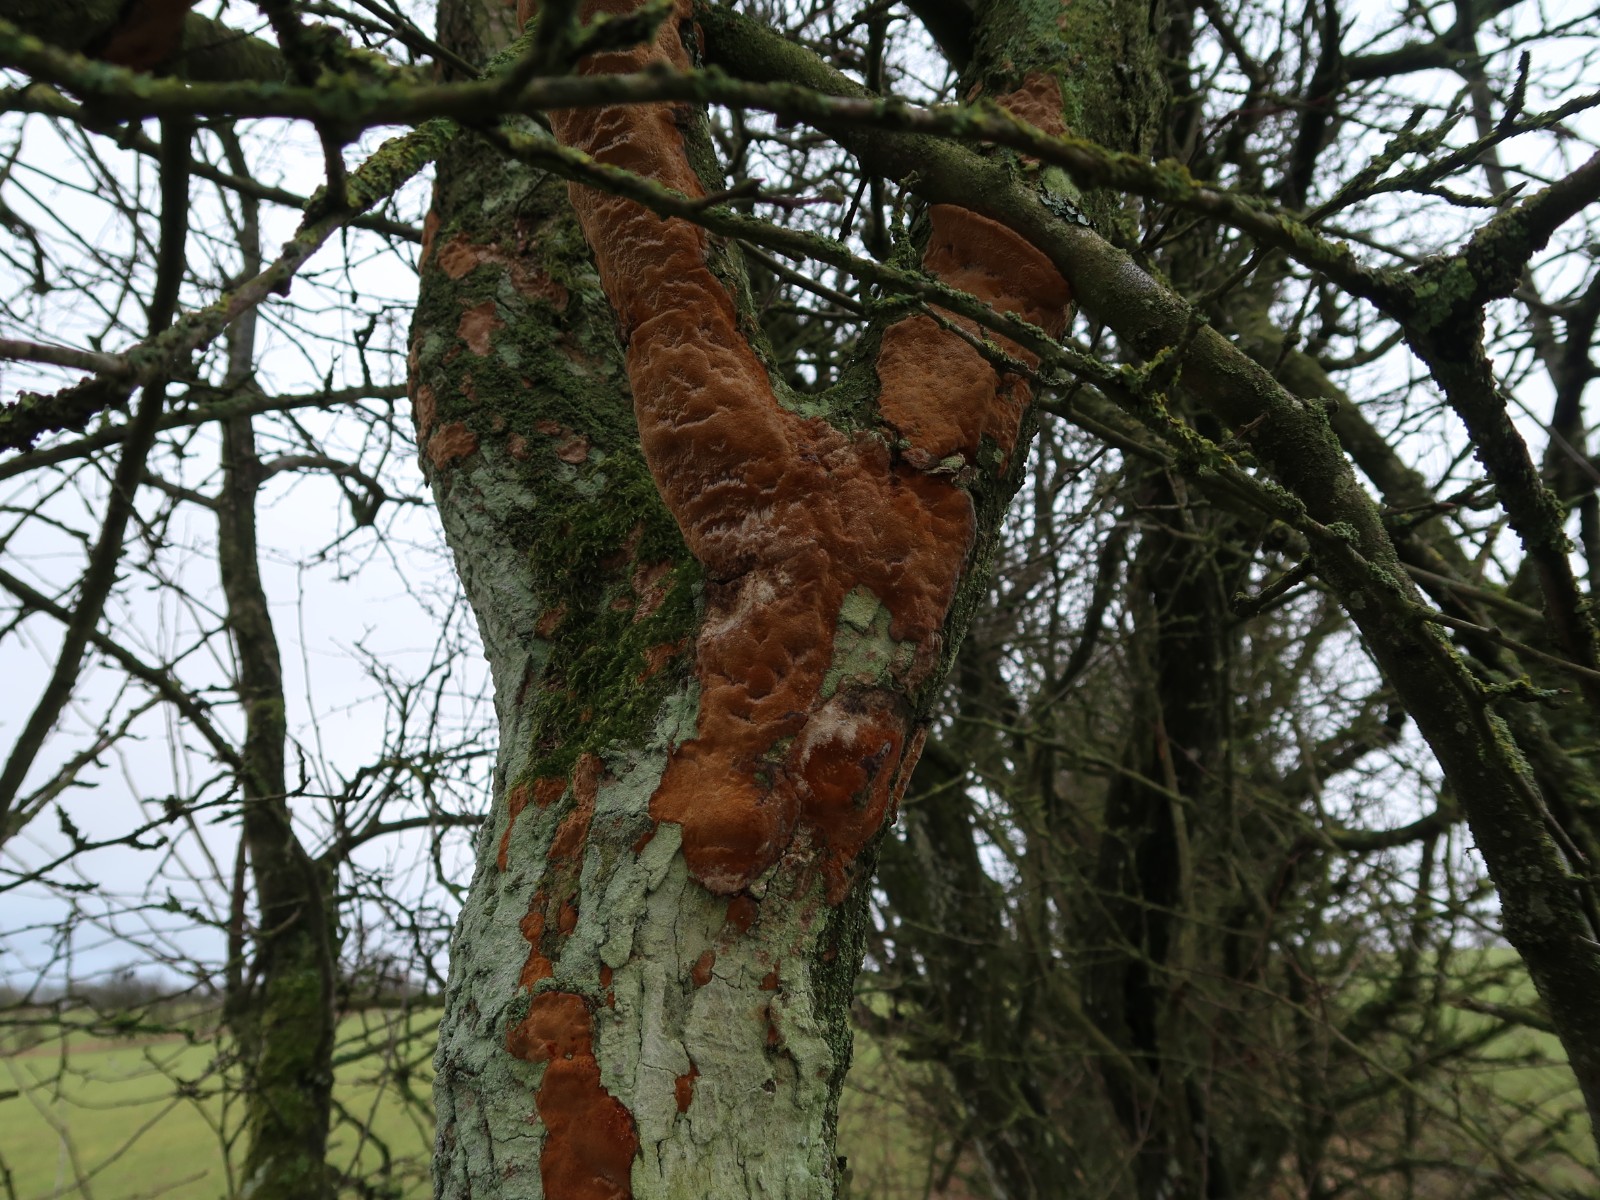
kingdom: Fungi
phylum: Basidiomycota
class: Agaricomycetes
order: Hymenochaetales
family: Hymenochaetaceae
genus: Fuscoporia
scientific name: Fuscoporia ferrea
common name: skorpe-ildporesvamp
